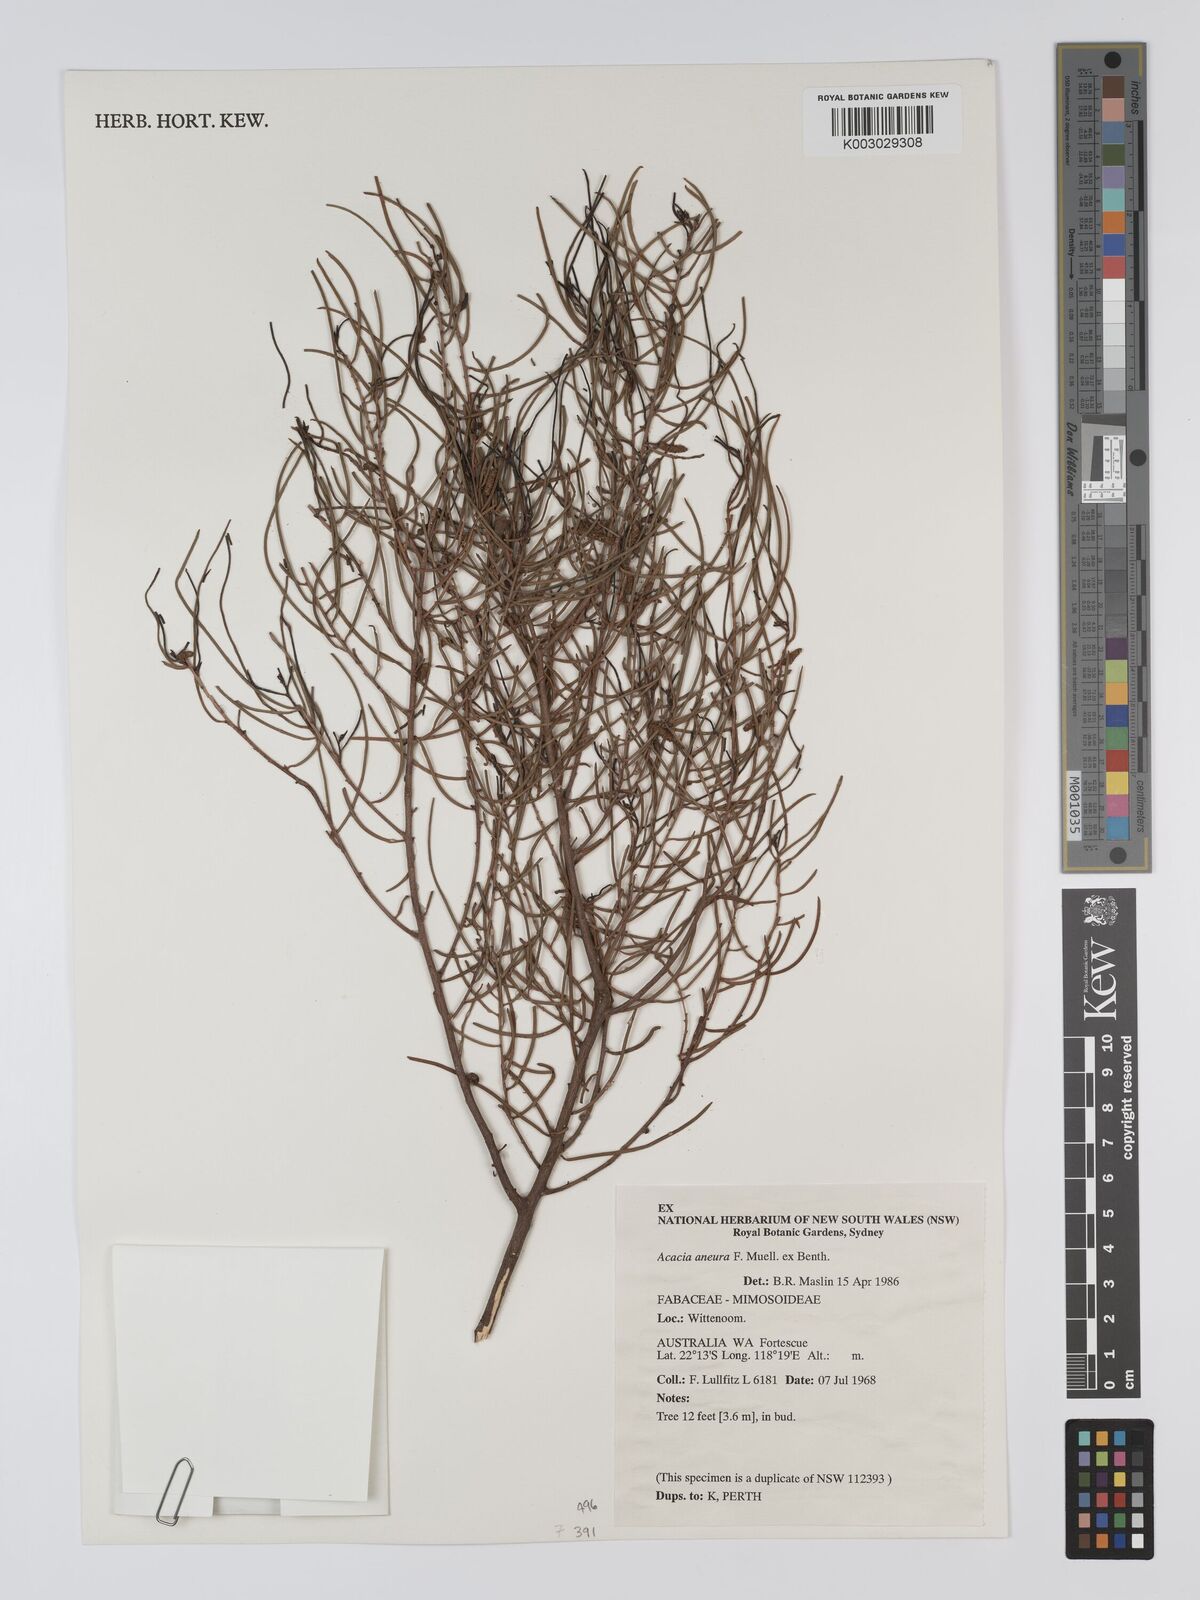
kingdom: Plantae
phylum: Tracheophyta
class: Magnoliopsida
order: Fabales
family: Fabaceae
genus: Acacia
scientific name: Acacia aneura
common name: Mulga
